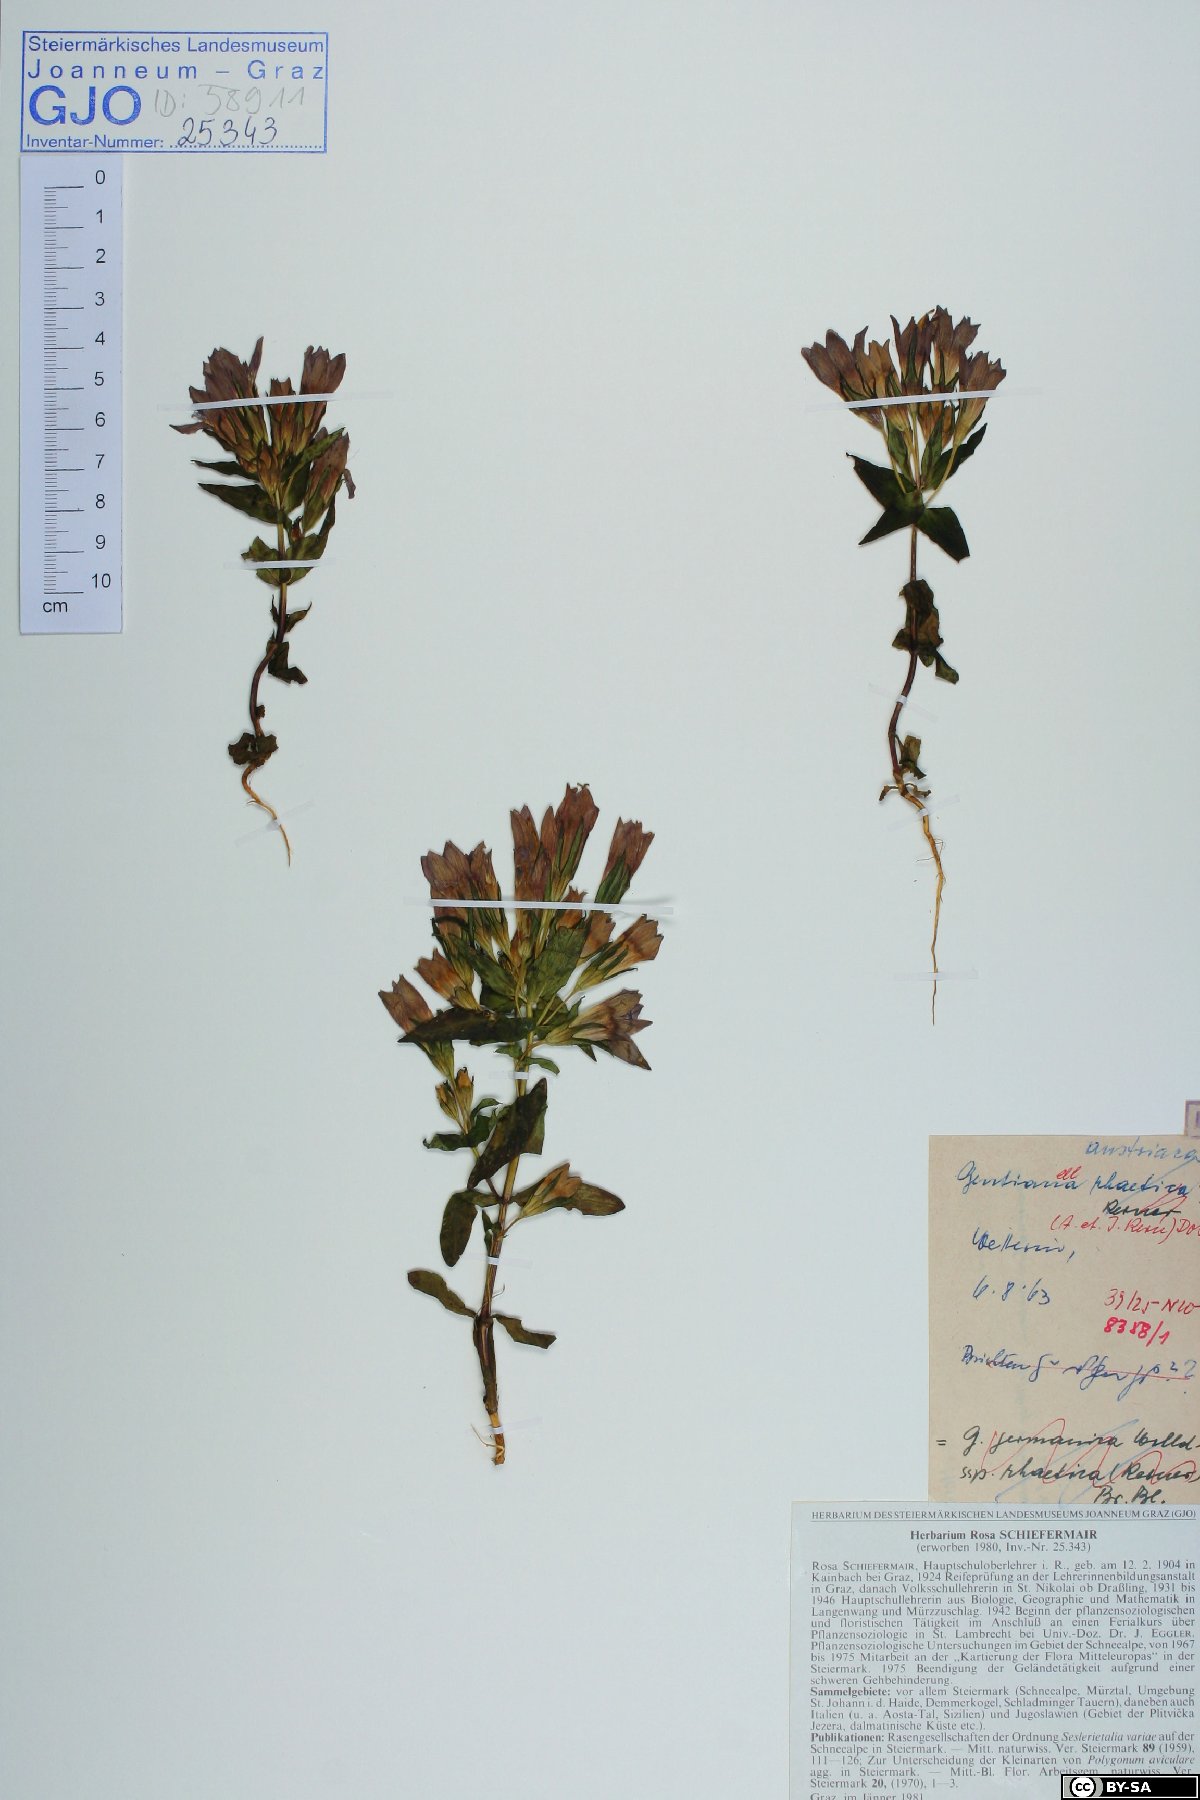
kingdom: Plantae
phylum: Tracheophyta
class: Magnoliopsida
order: Gentianales
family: Gentianaceae
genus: Gentianella
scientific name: Gentianella austriaca
